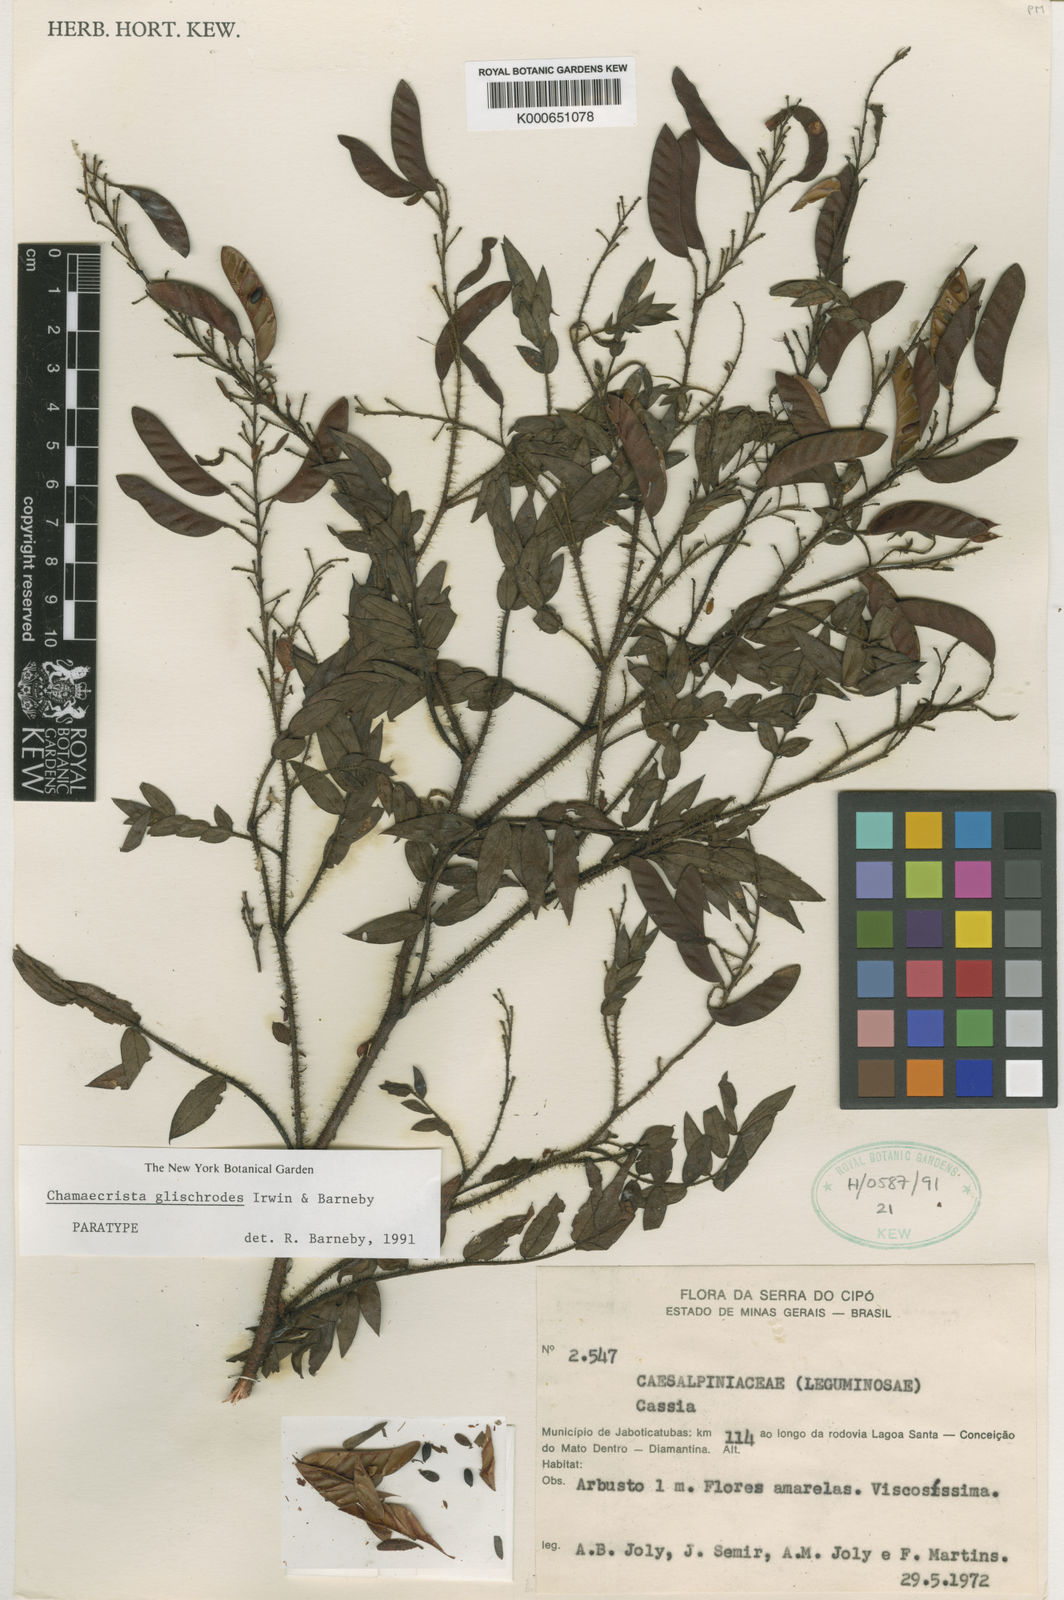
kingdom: Plantae
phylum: Tracheophyta
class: Magnoliopsida
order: Fabales
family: Fabaceae
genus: Chamaecrista
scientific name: Chamaecrista glischrodes
